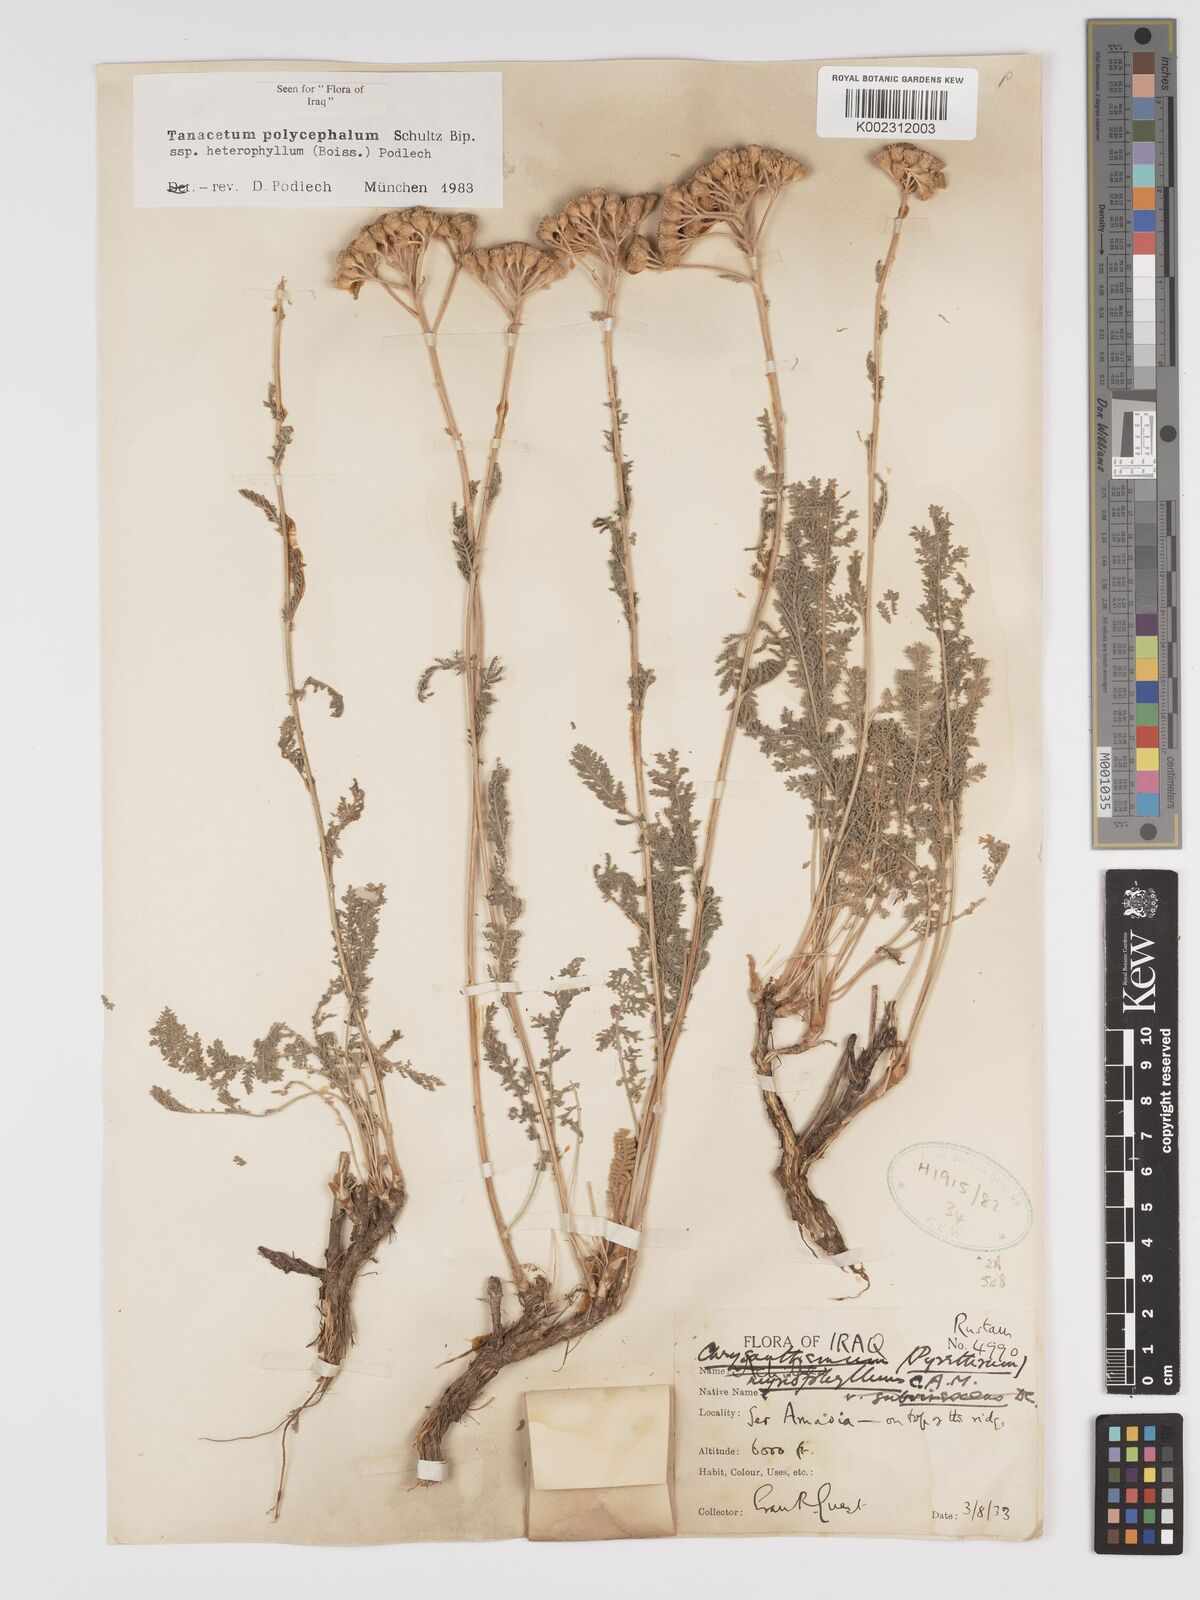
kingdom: Plantae
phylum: Tracheophyta
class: Magnoliopsida
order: Asterales
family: Asteraceae
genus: Tanacetum
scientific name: Tanacetum polycephalum
